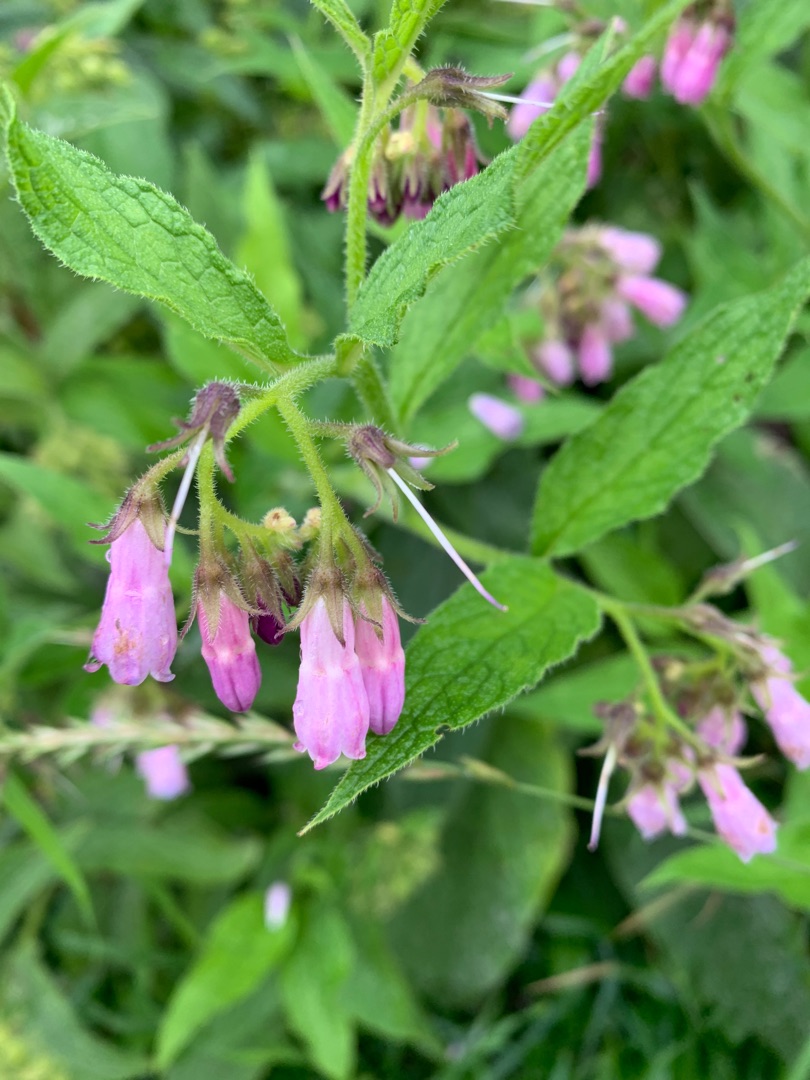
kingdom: Plantae
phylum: Tracheophyta
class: Magnoliopsida
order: Boraginales
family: Boraginaceae
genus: Symphytum
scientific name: Symphytum uplandicum
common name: Foder-kulsukker
